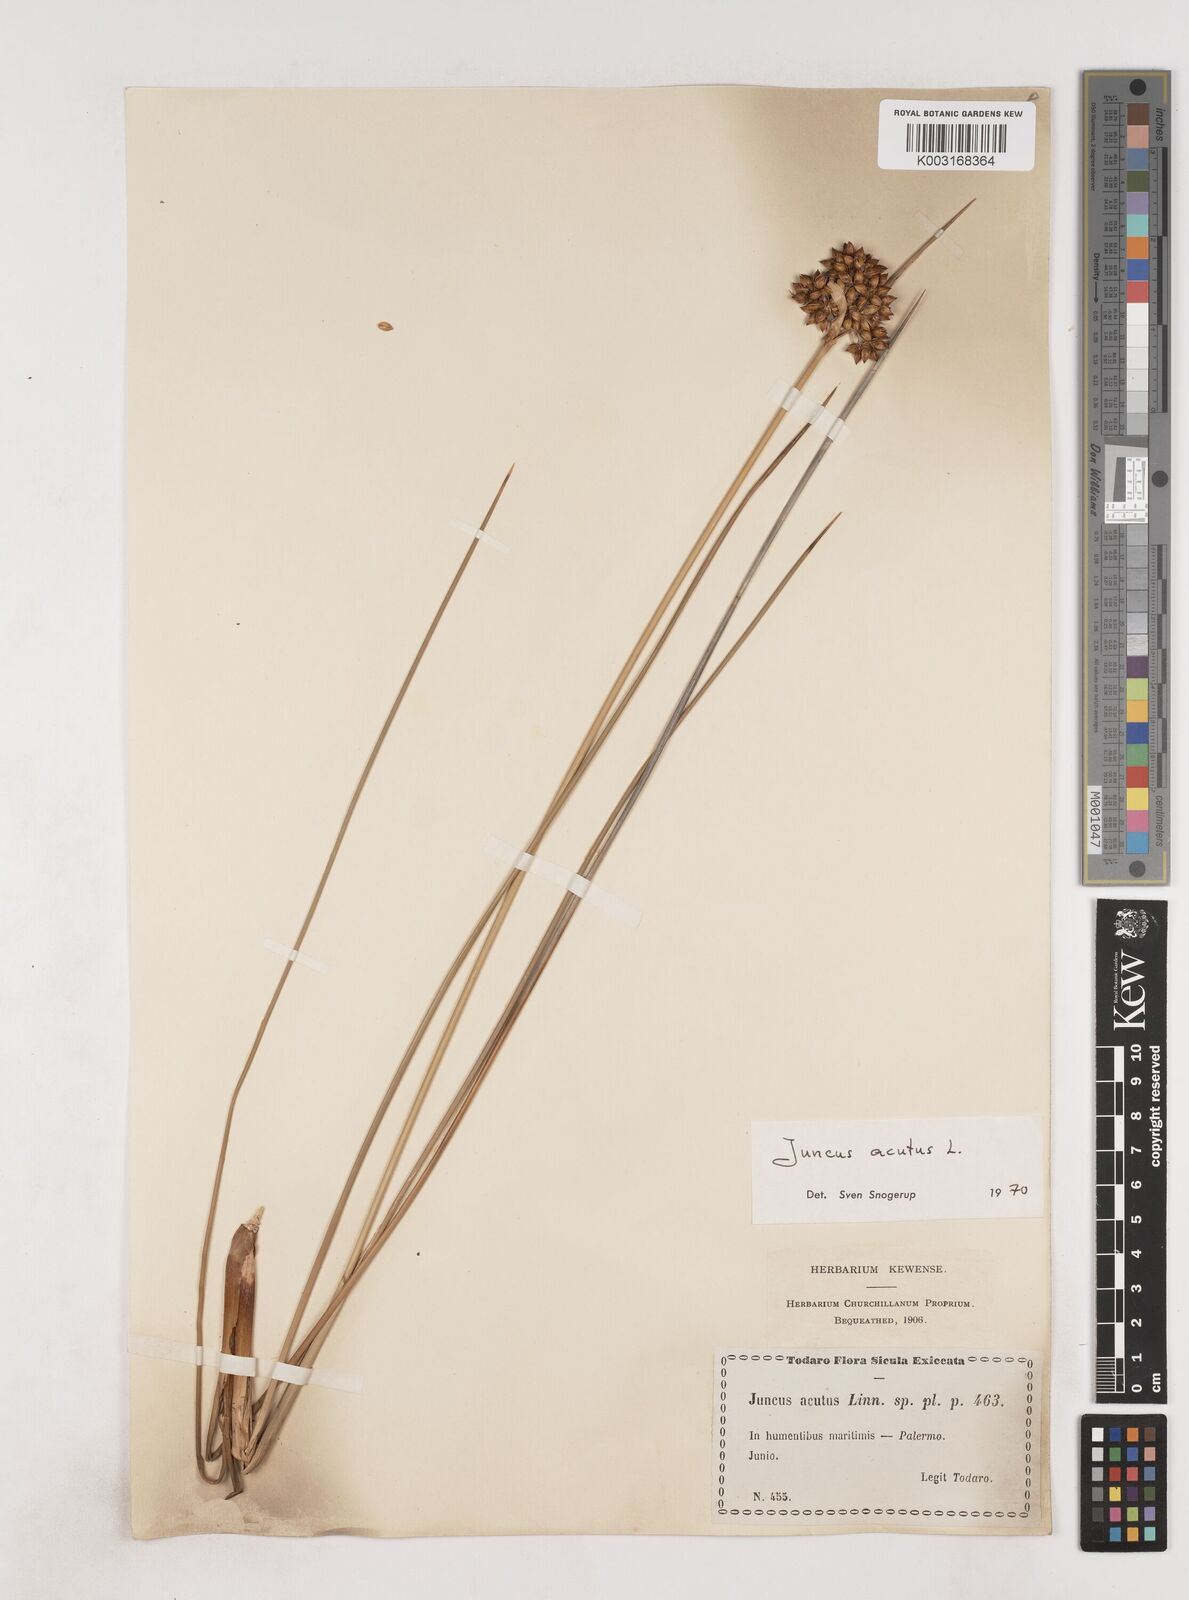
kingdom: Plantae
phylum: Tracheophyta
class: Liliopsida
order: Poales
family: Juncaceae
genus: Juncus
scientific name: Juncus acutus
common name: Sharp rush
